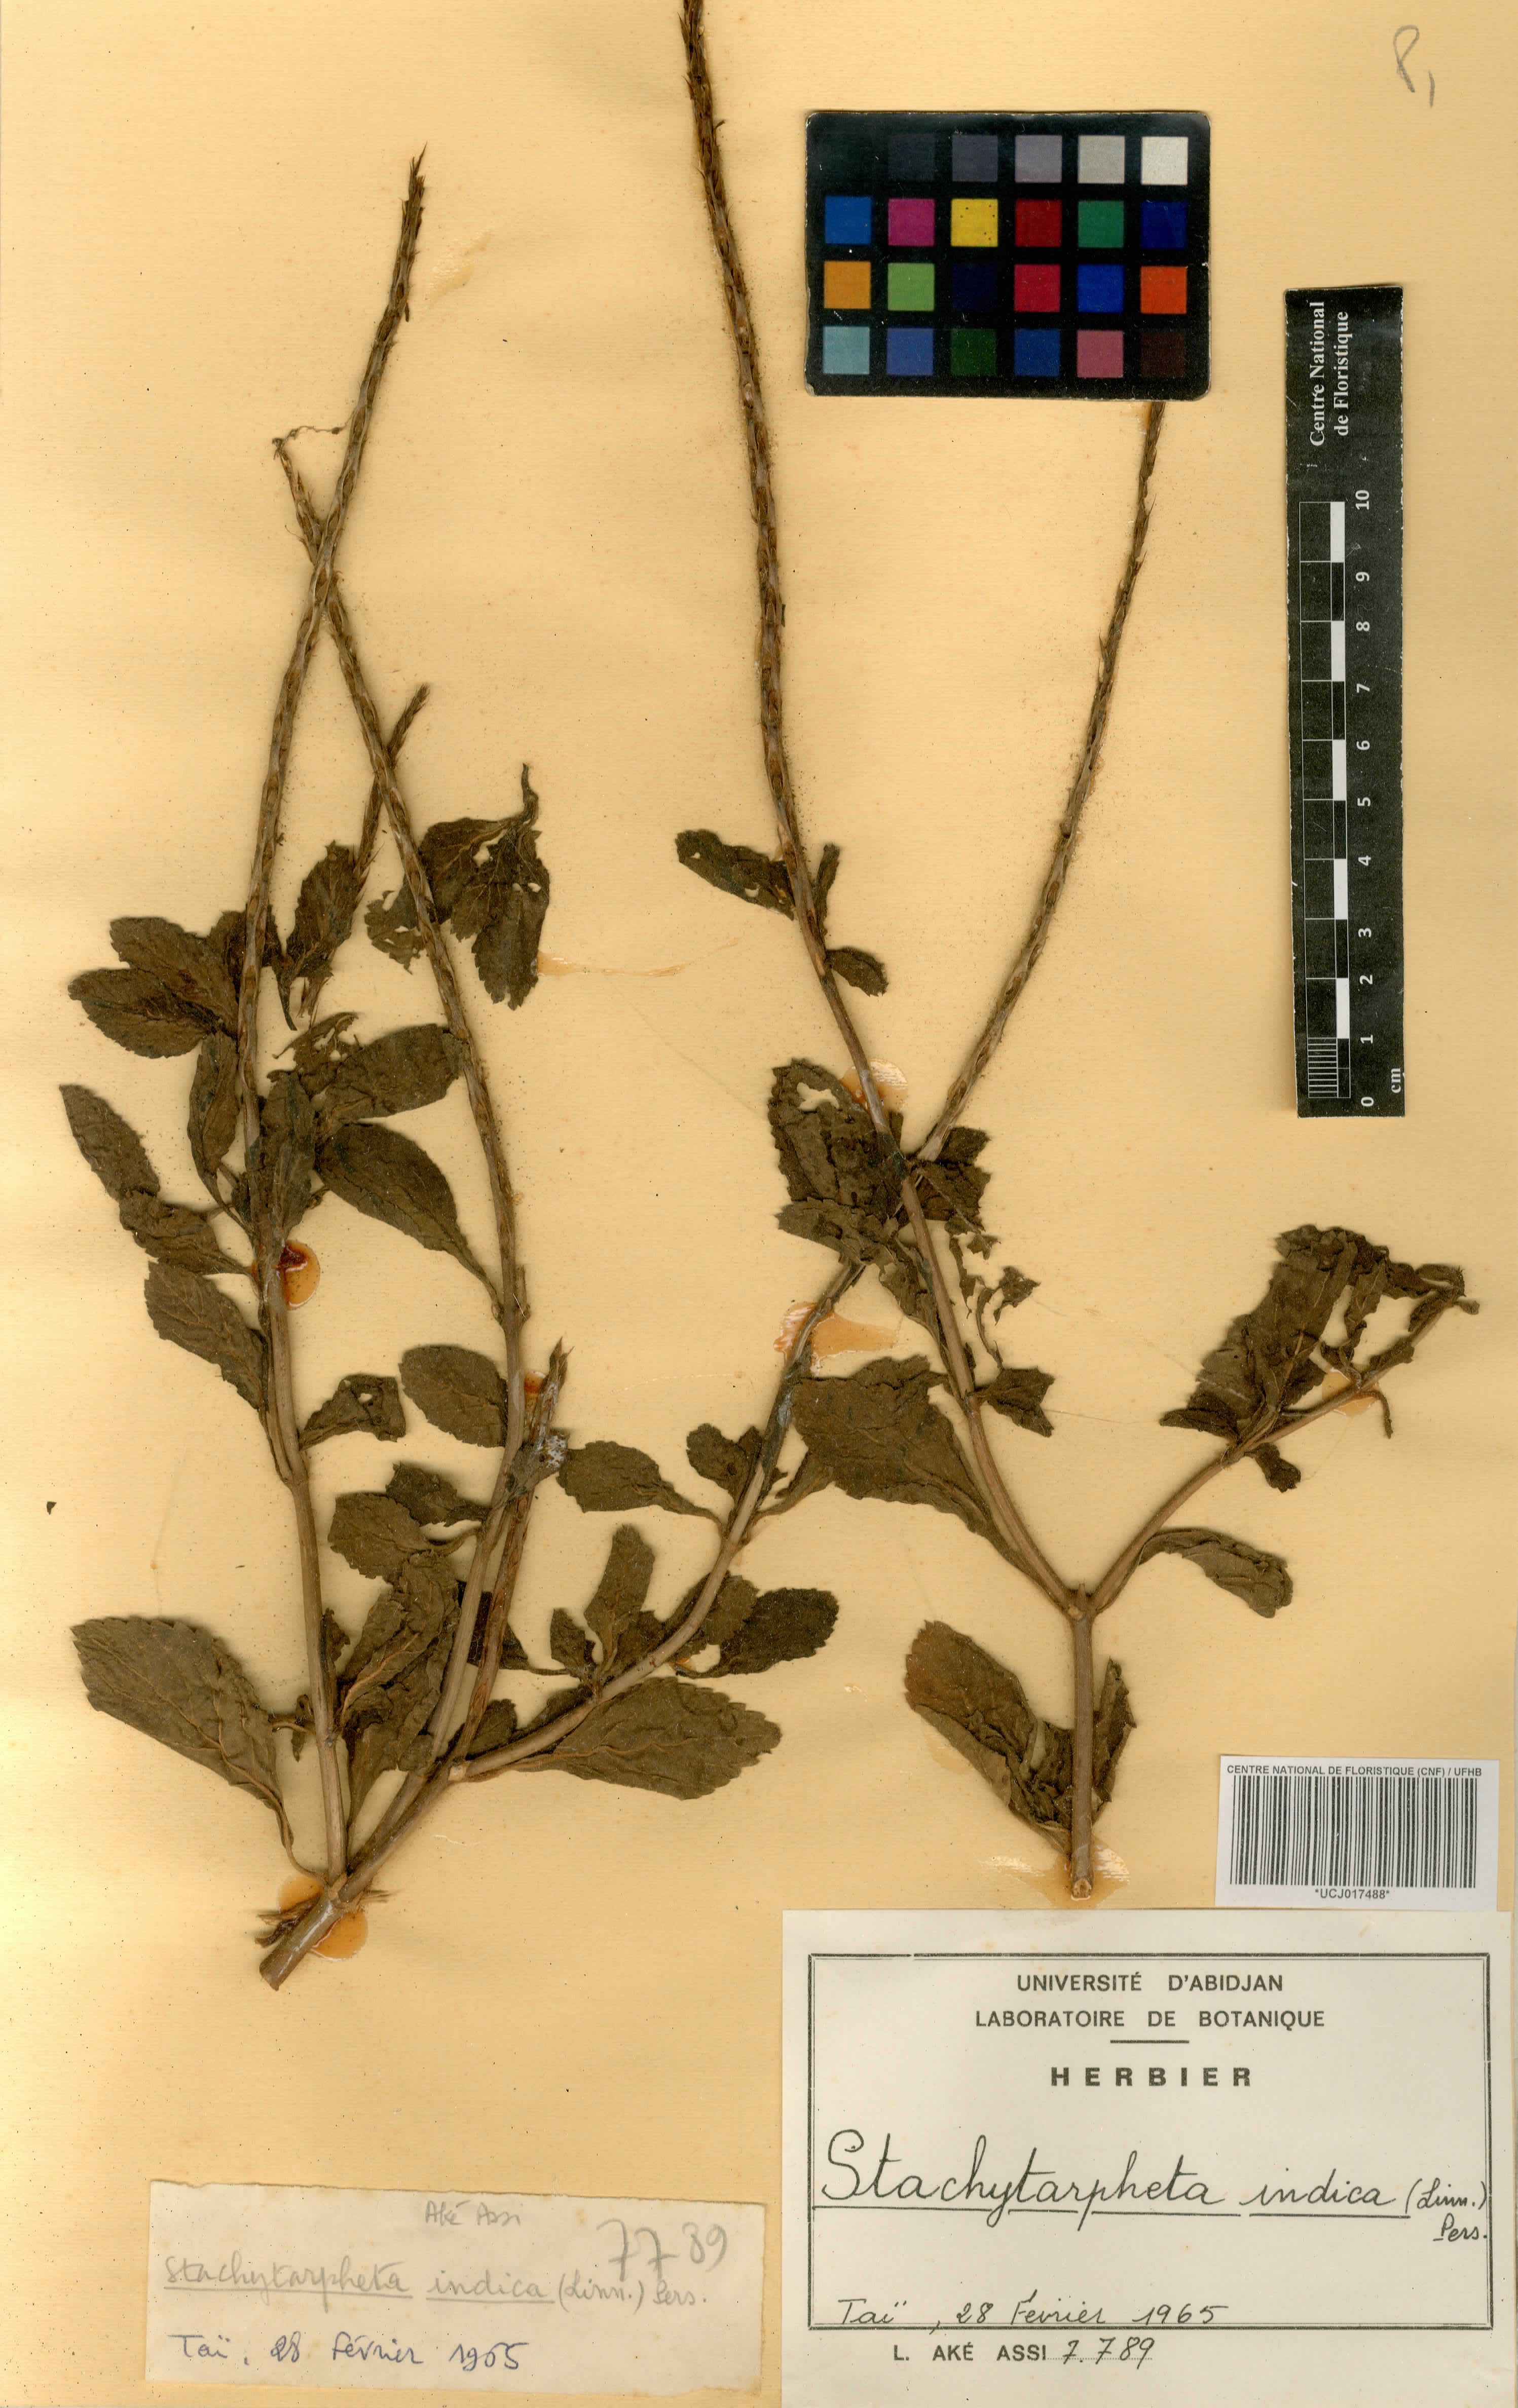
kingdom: Plantae
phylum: Tracheophyta
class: Magnoliopsida
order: Lamiales
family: Verbenaceae
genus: Stachytarpheta
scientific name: Stachytarpheta indica
